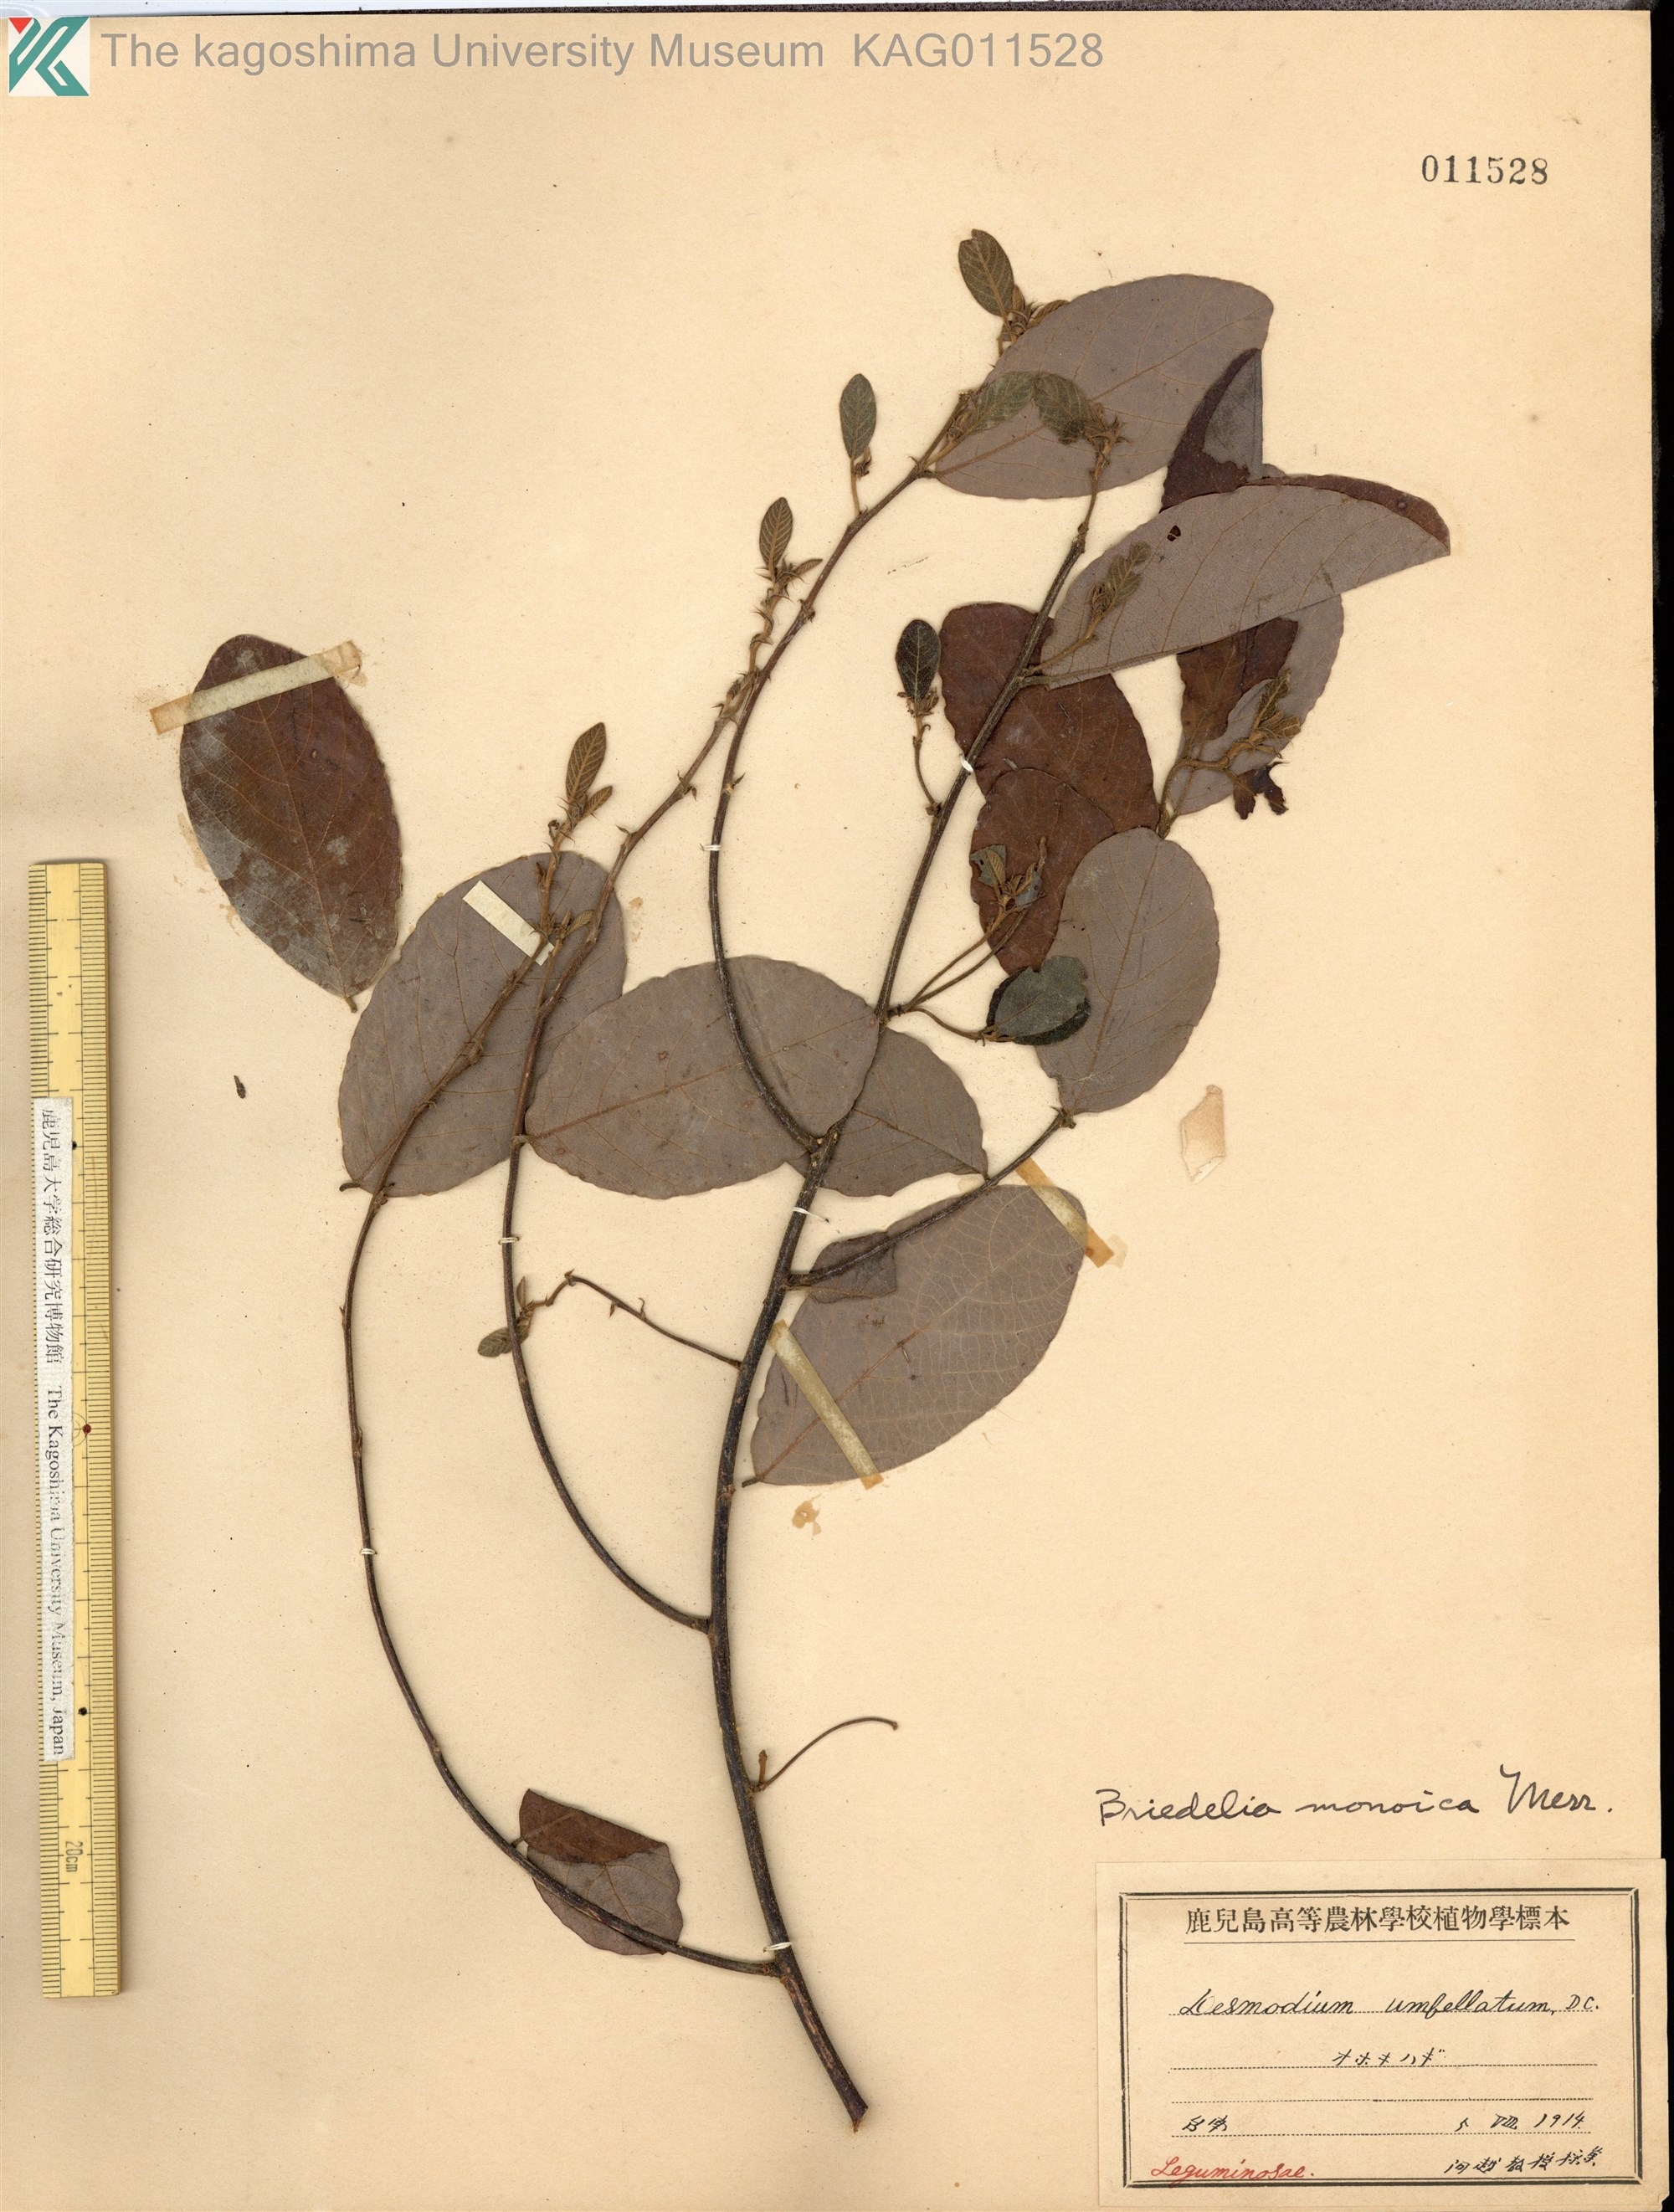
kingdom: Plantae
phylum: Tracheophyta
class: Magnoliopsida
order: Malpighiales
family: Phyllanthaceae
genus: Cleistanthus
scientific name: Cleistanthus monoicus
